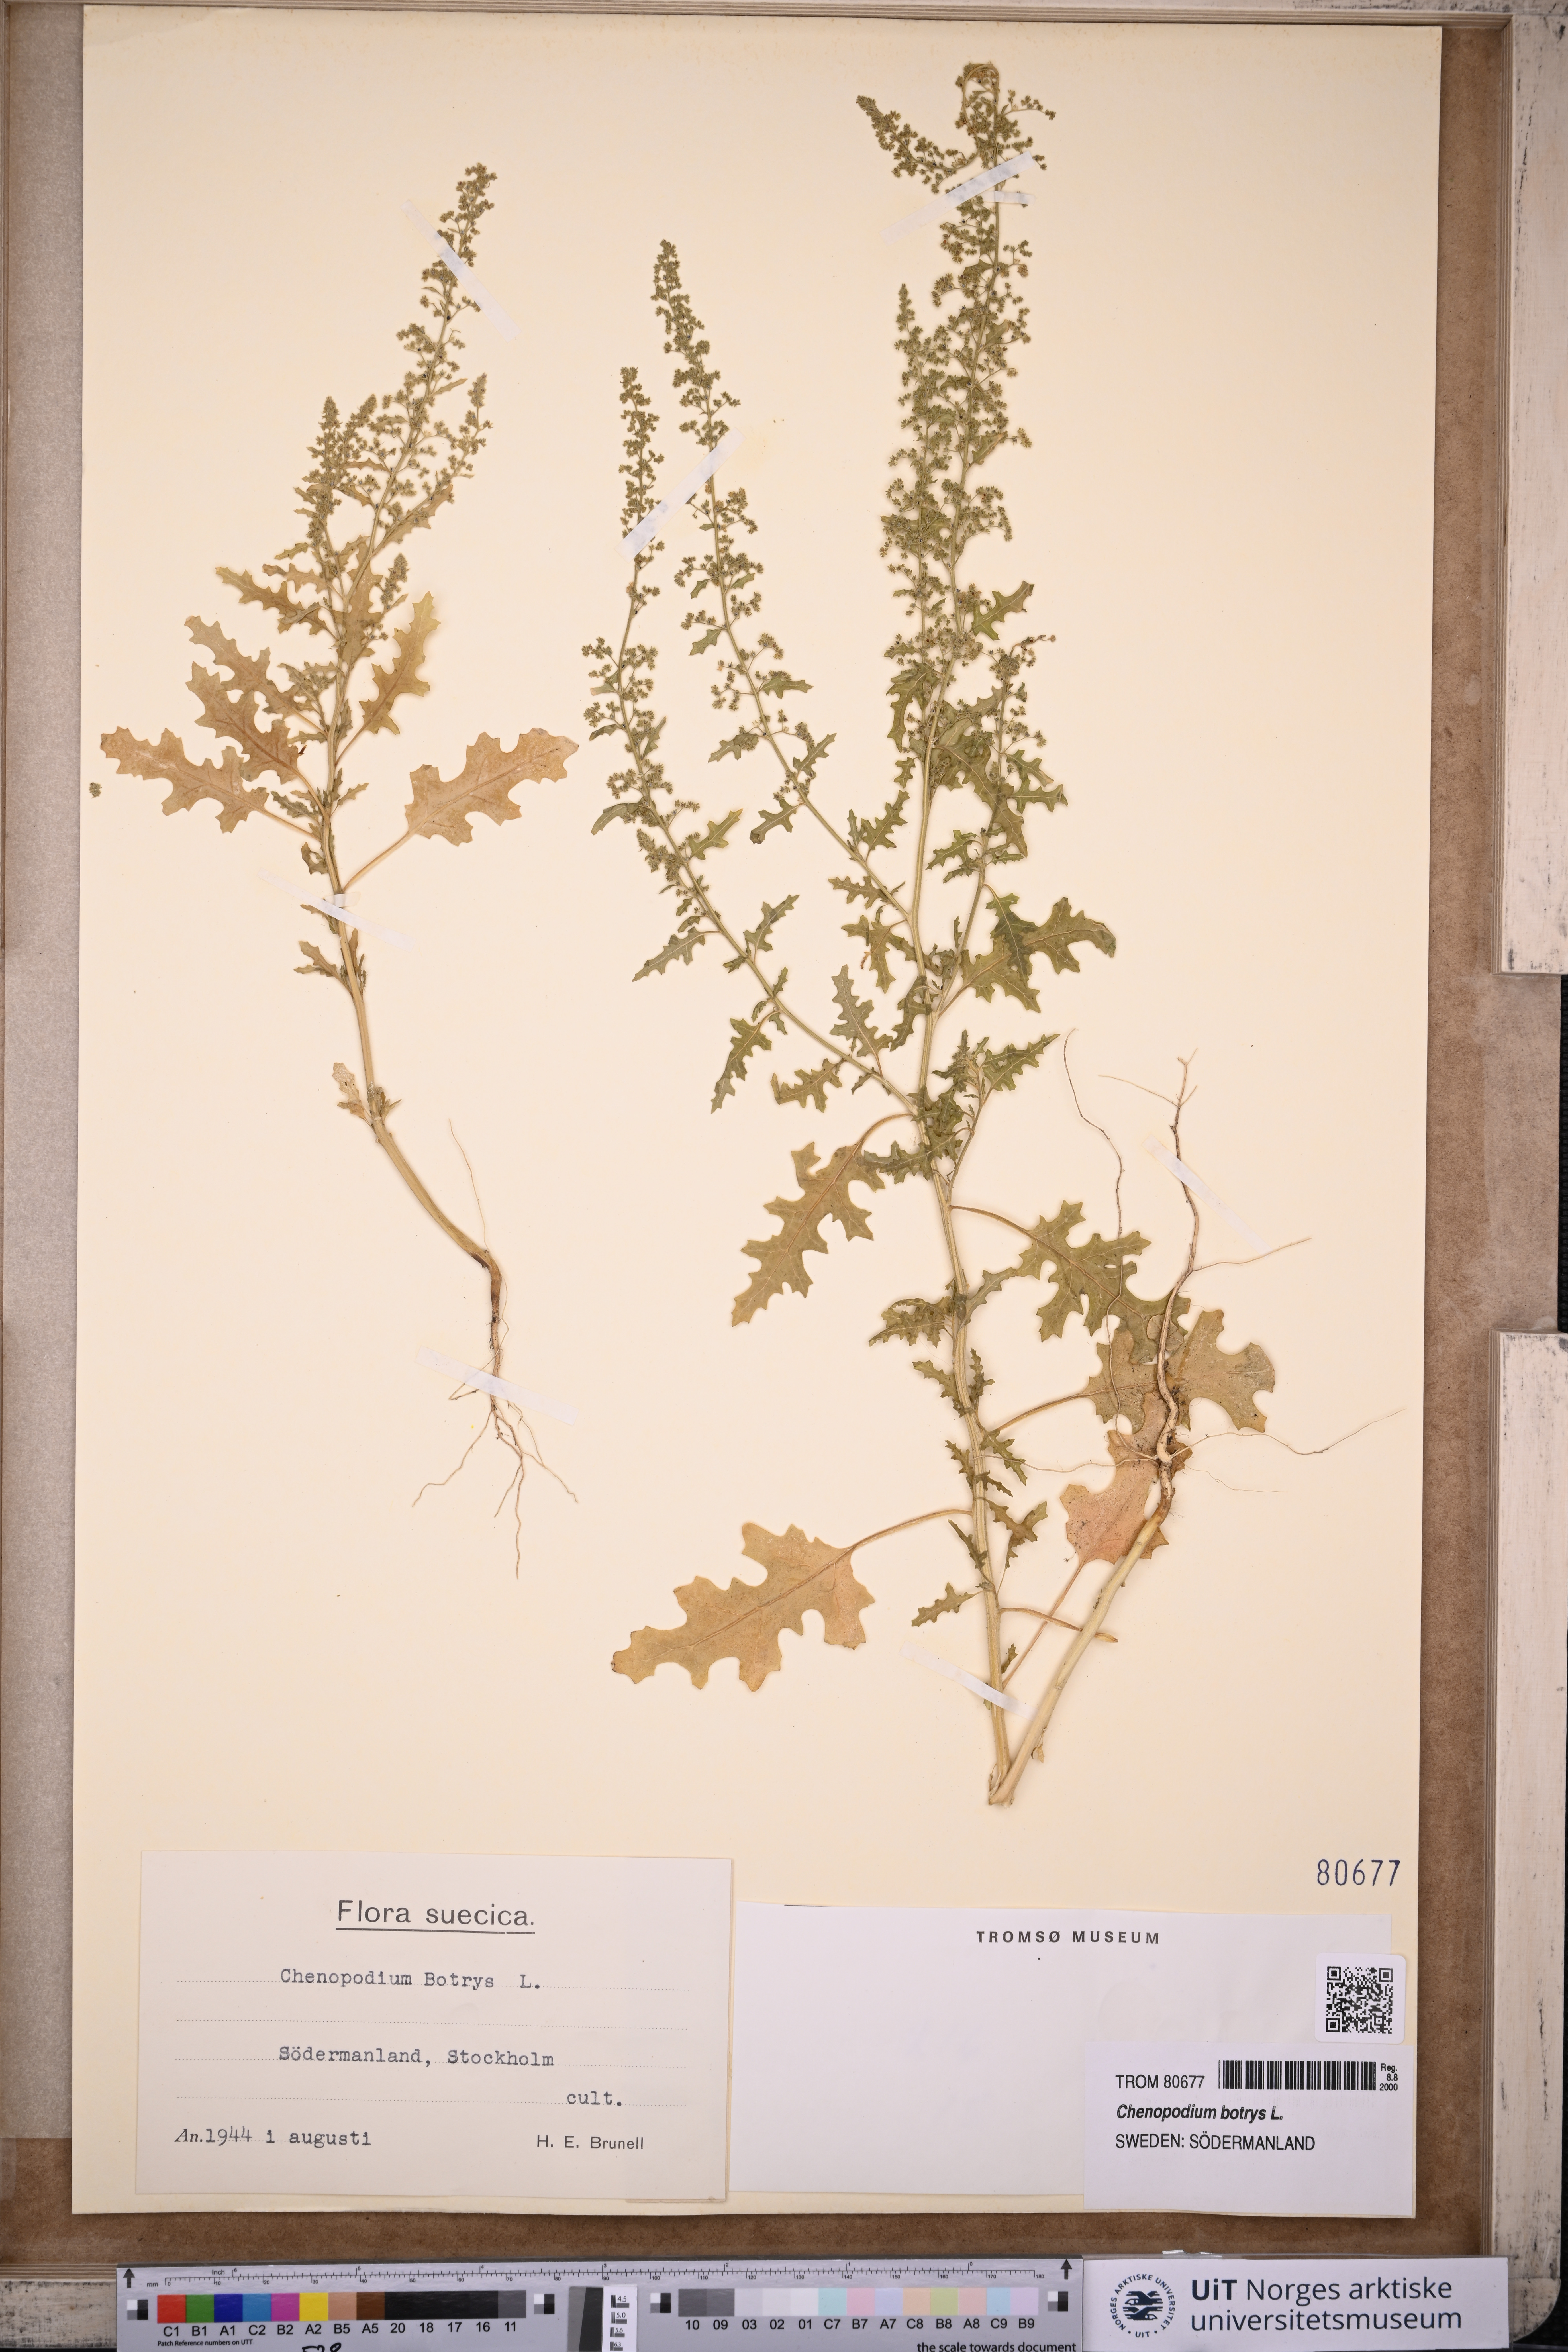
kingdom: Plantae
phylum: Tracheophyta
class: Magnoliopsida
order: Caryophyllales
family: Amaranthaceae
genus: Dysphania
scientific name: Dysphania botrys
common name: Feather-geranium
